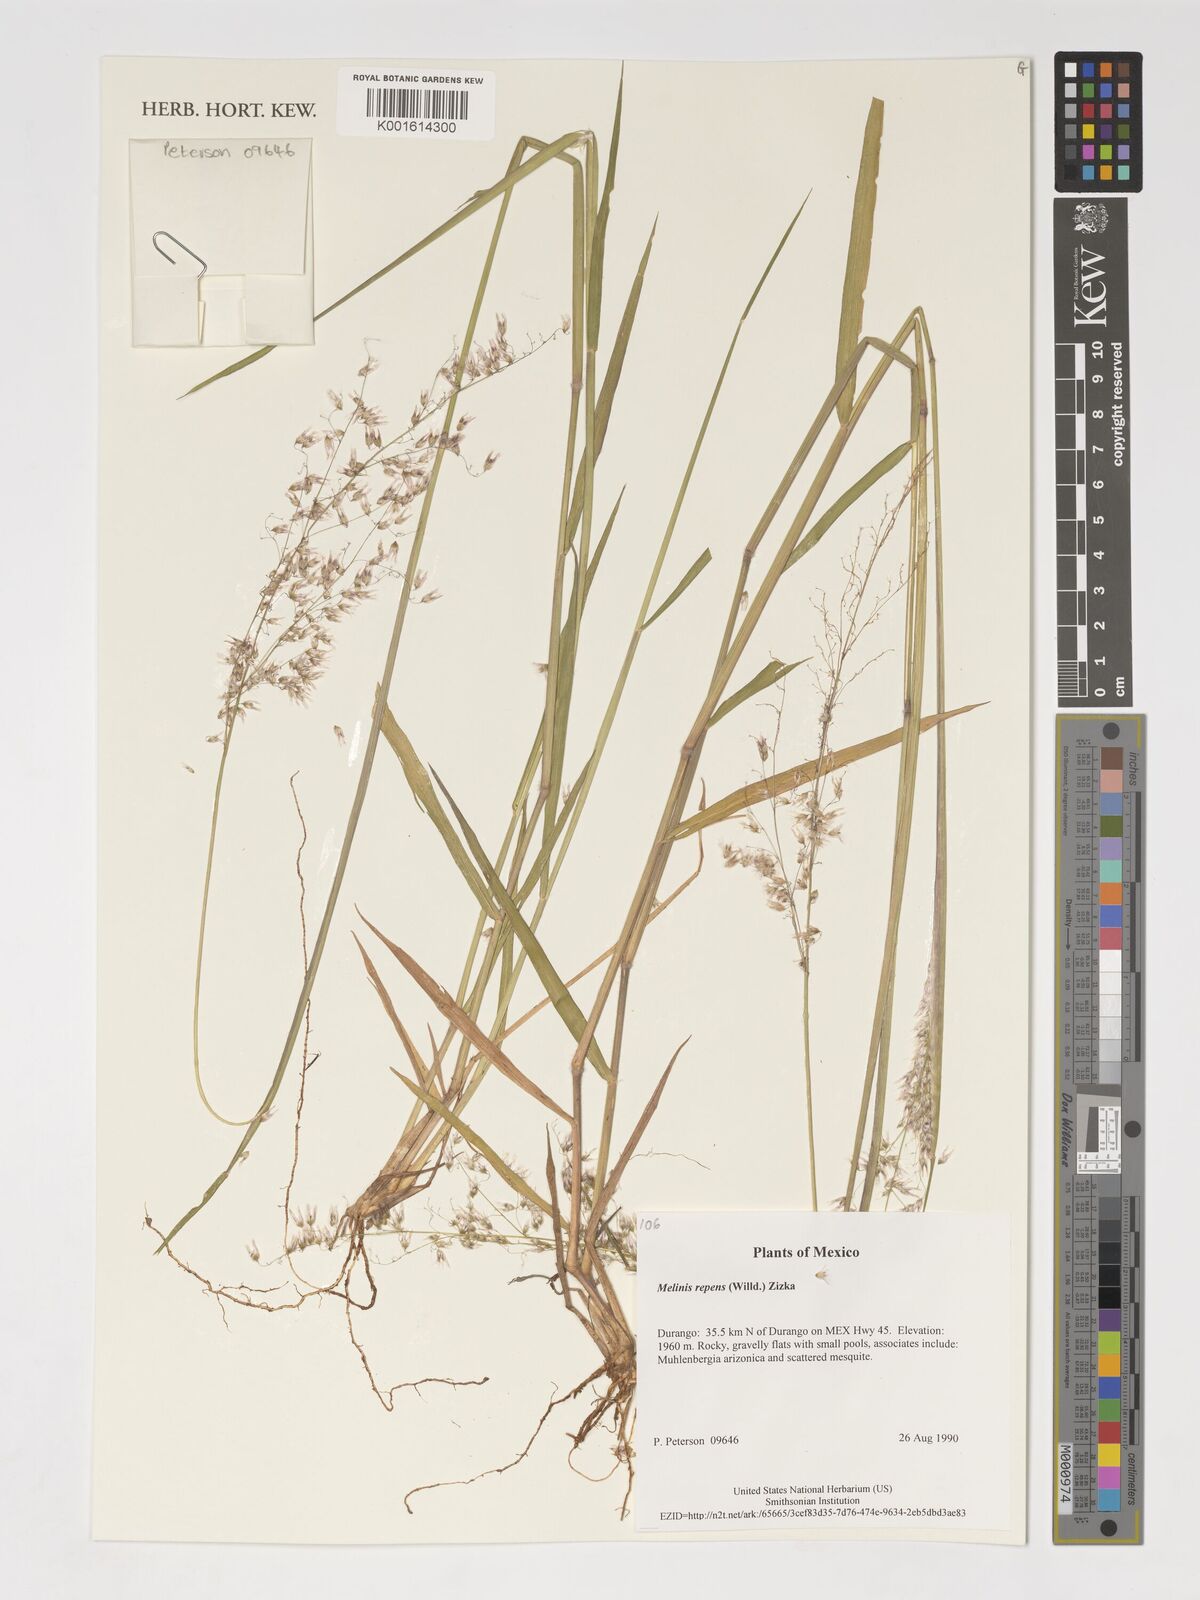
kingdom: Plantae
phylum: Tracheophyta
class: Liliopsida
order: Poales
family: Poaceae
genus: Melinis
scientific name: Melinis repens
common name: Rose natal grass
